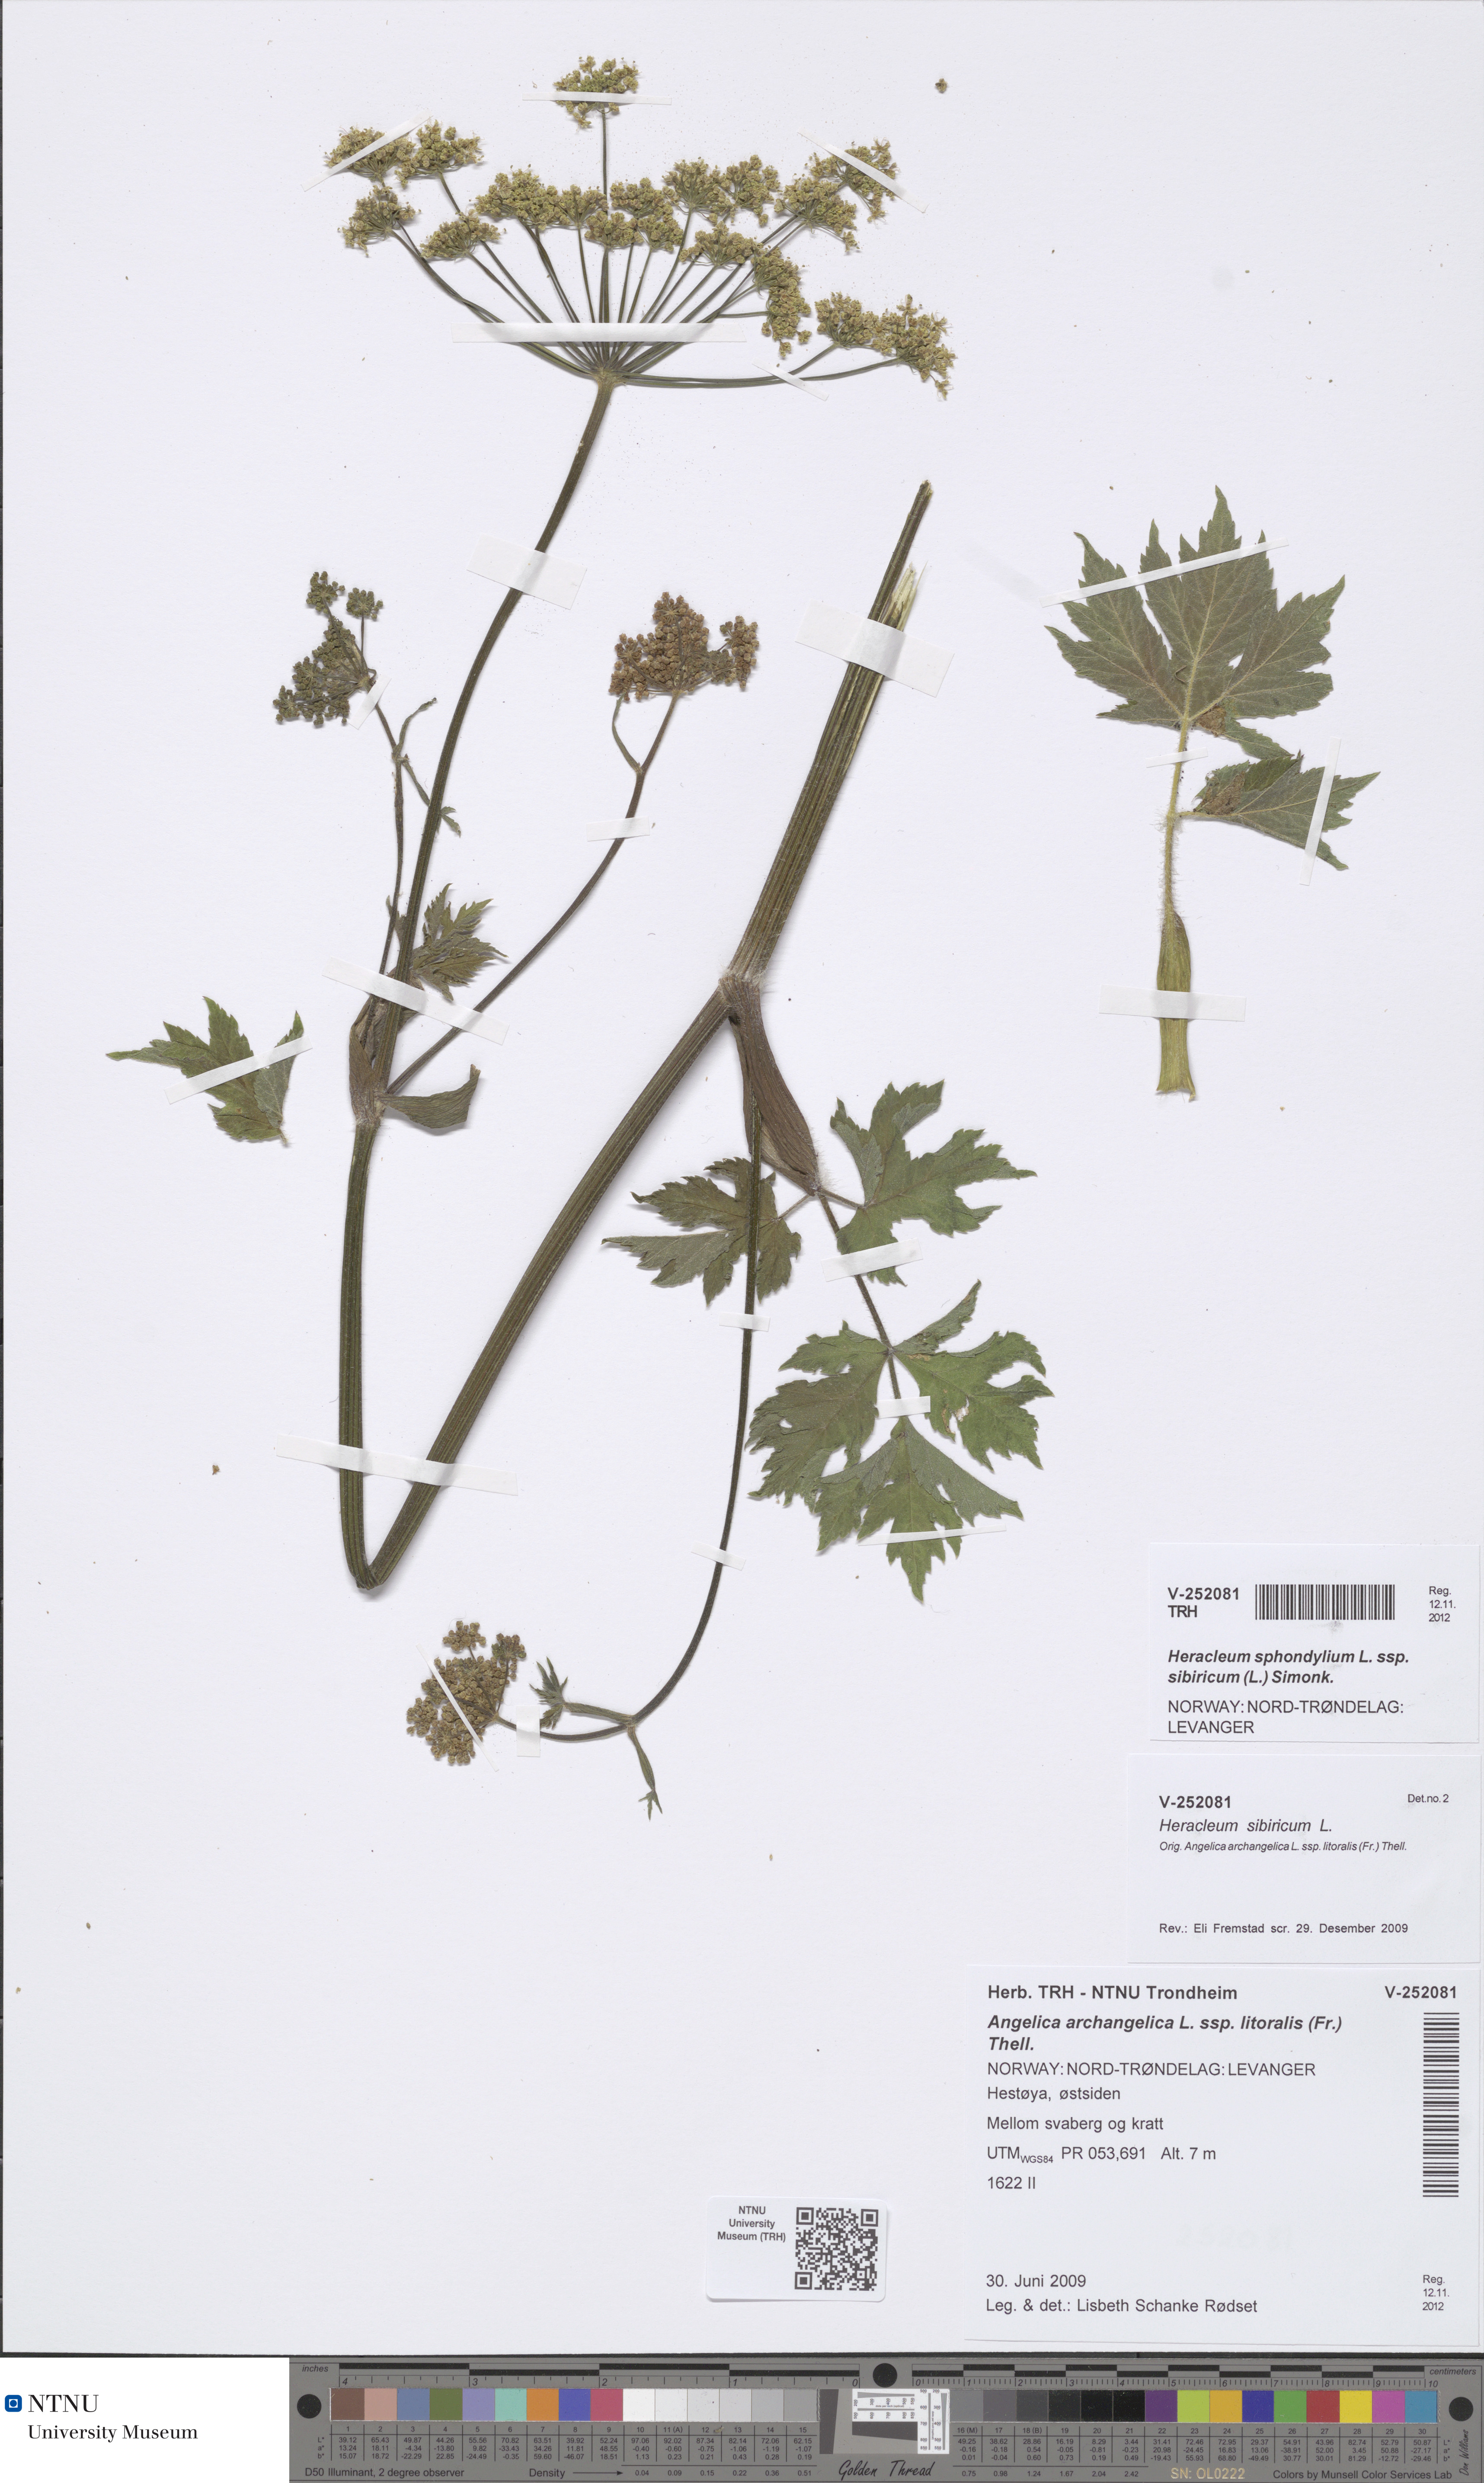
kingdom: Plantae
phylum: Tracheophyta
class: Magnoliopsida
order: Apiales
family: Apiaceae
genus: Heracleum
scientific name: Heracleum sphondylium
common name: Hogweed
